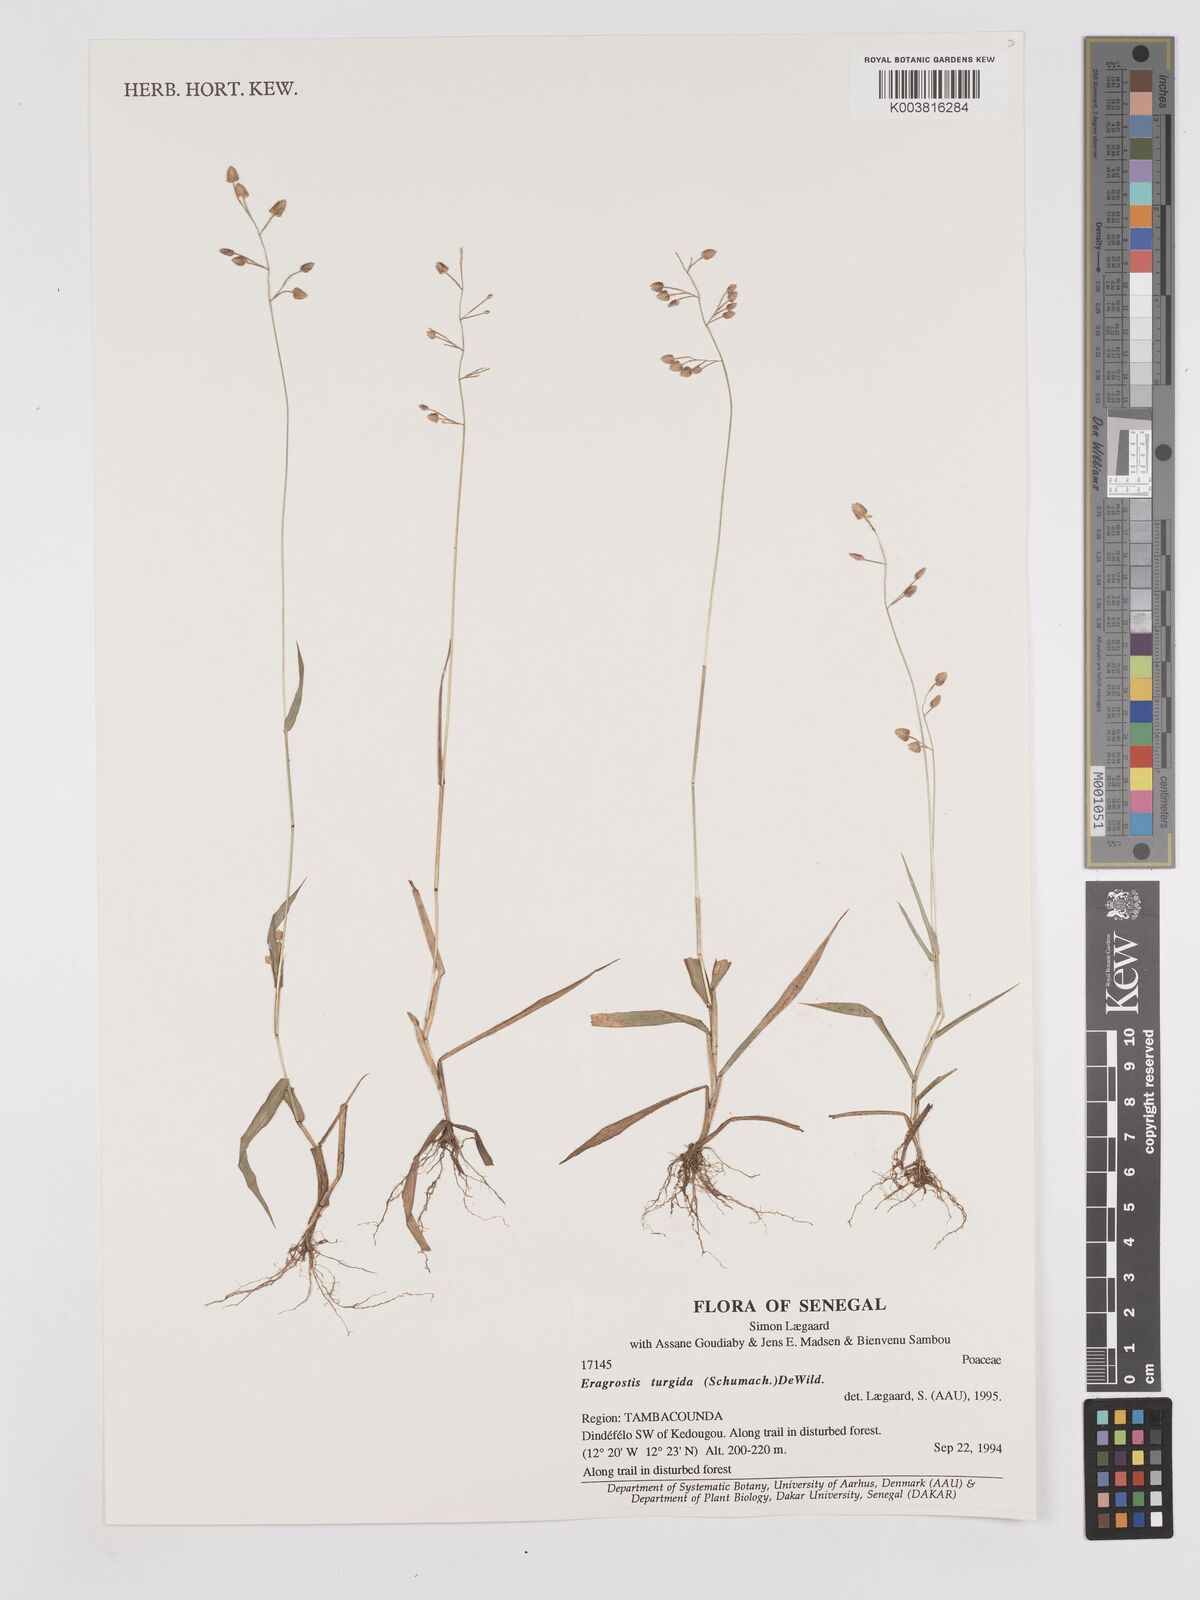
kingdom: Plantae
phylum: Tracheophyta
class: Liliopsida
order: Poales
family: Poaceae
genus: Eragrostis
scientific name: Eragrostis turgida
